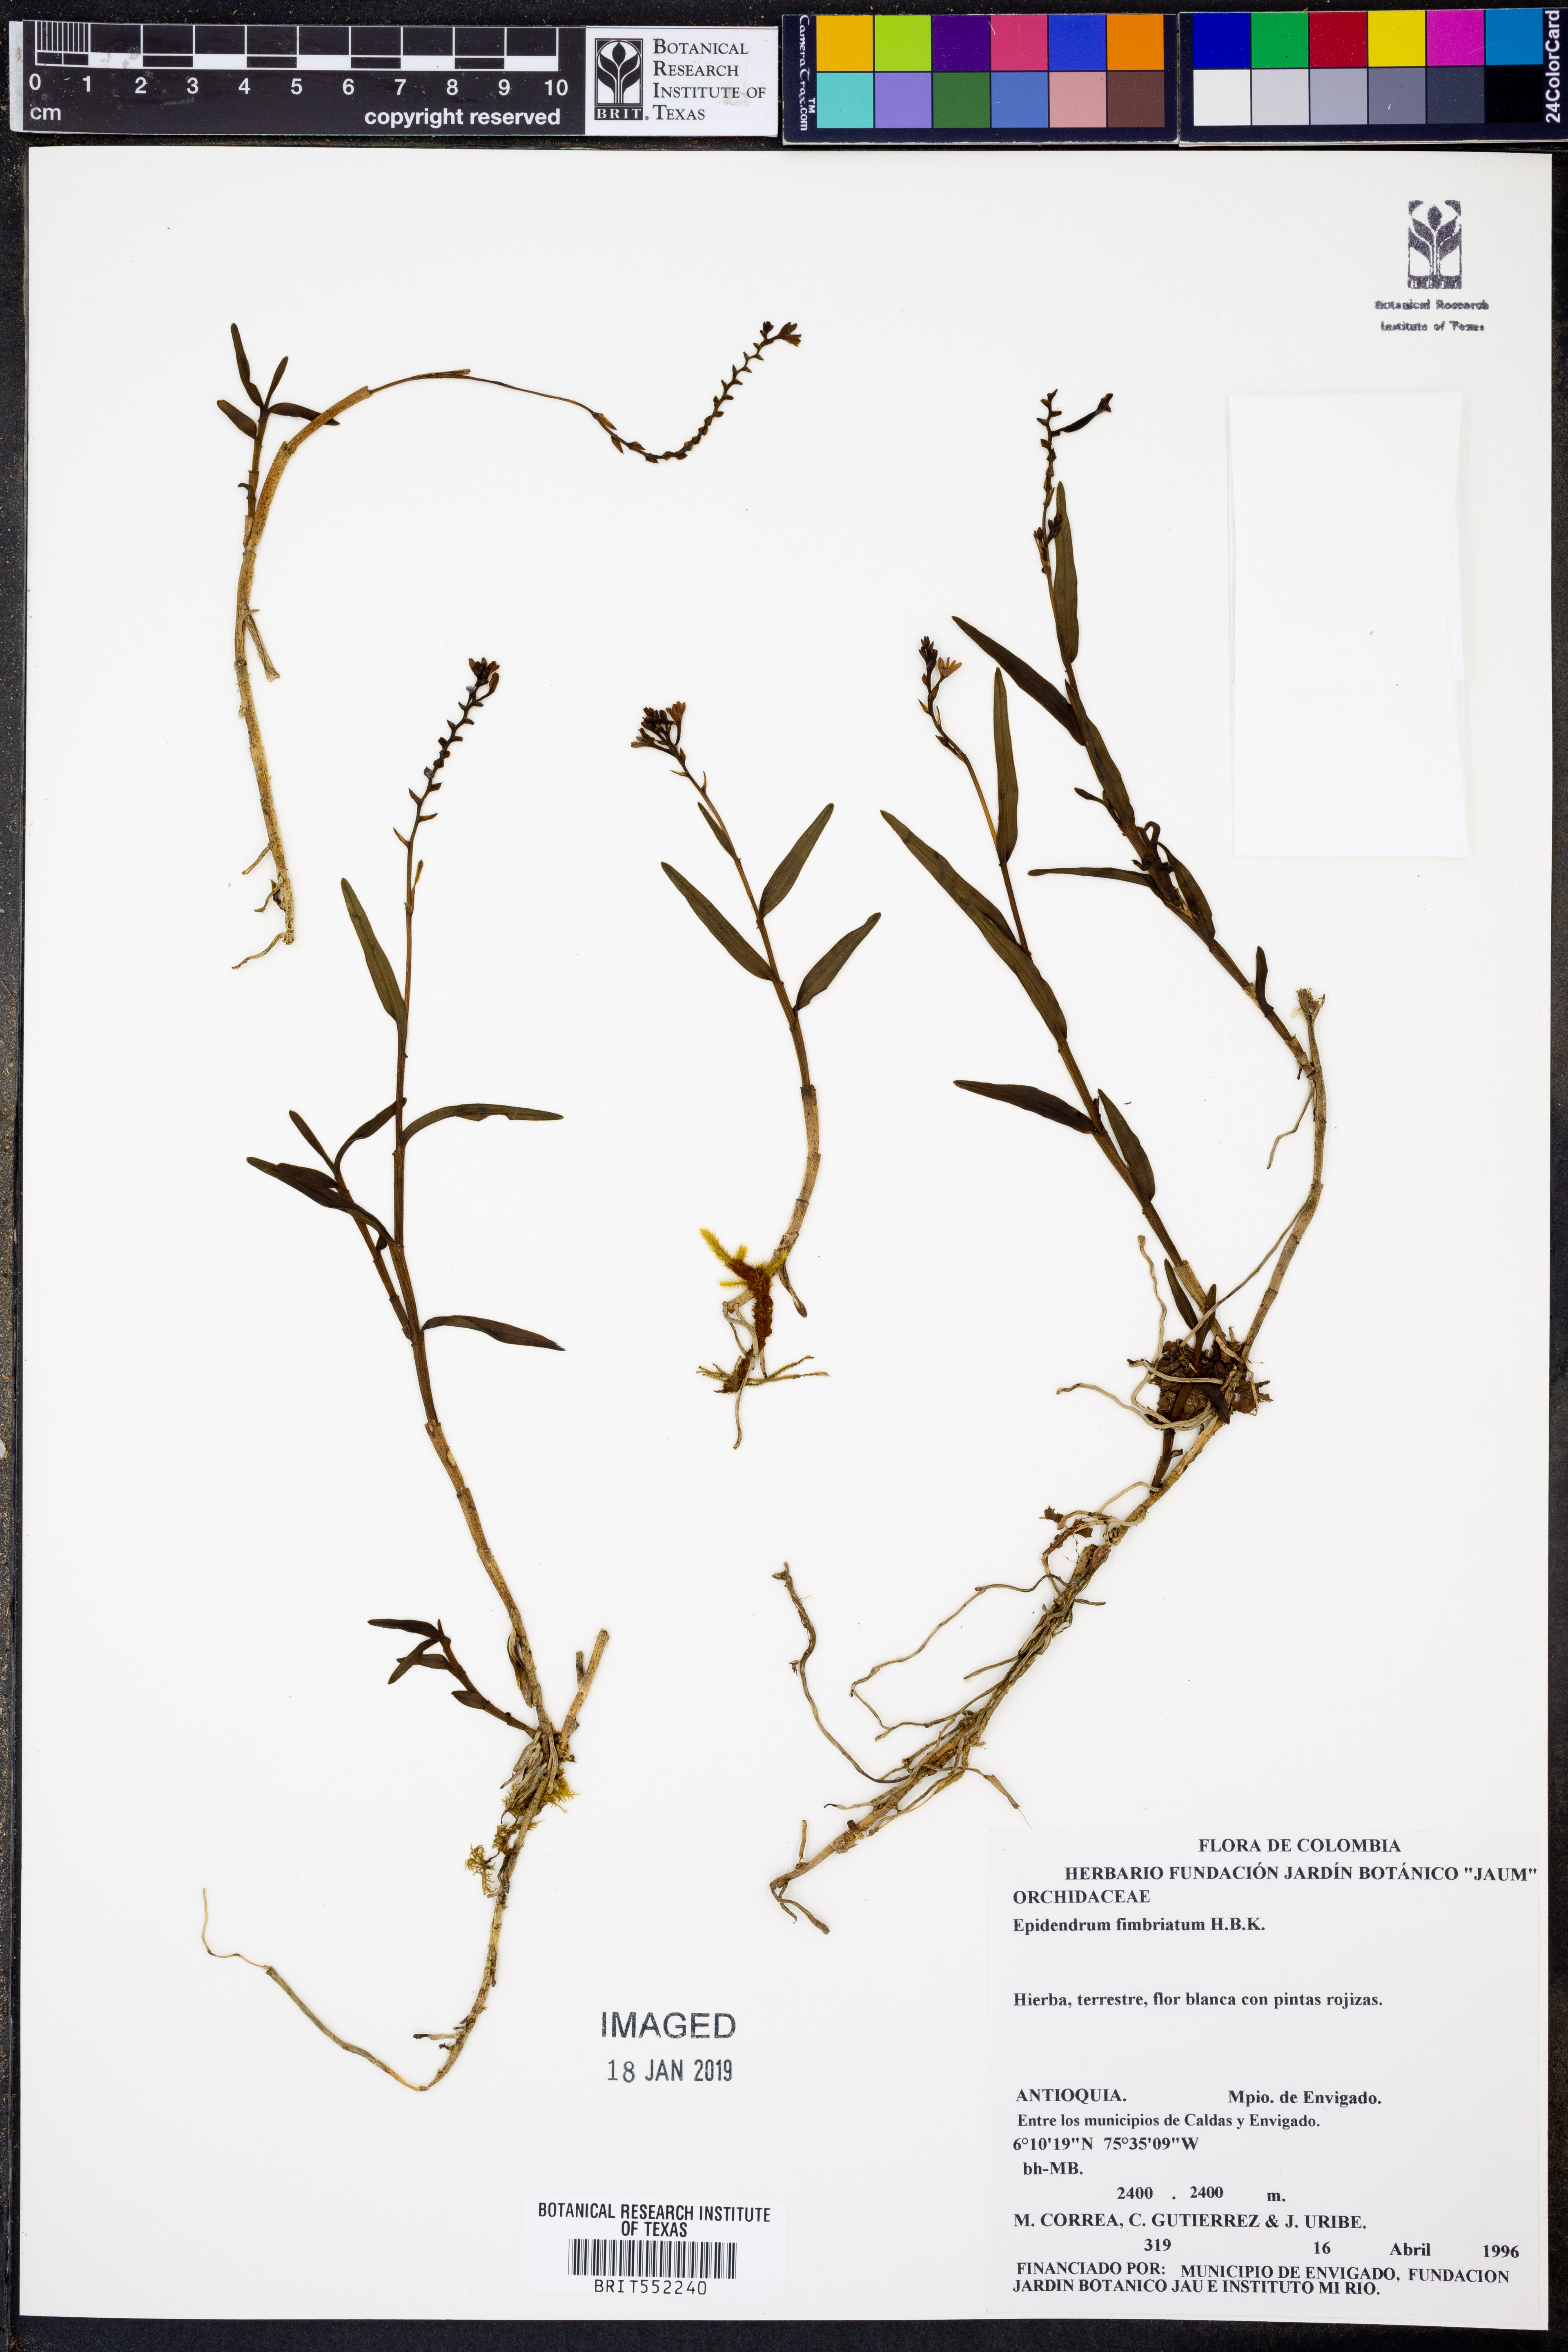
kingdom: Plantae
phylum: Tracheophyta
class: Liliopsida
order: Asparagales
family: Orchidaceae
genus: Epidendrum
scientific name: Epidendrum fimbriatum
